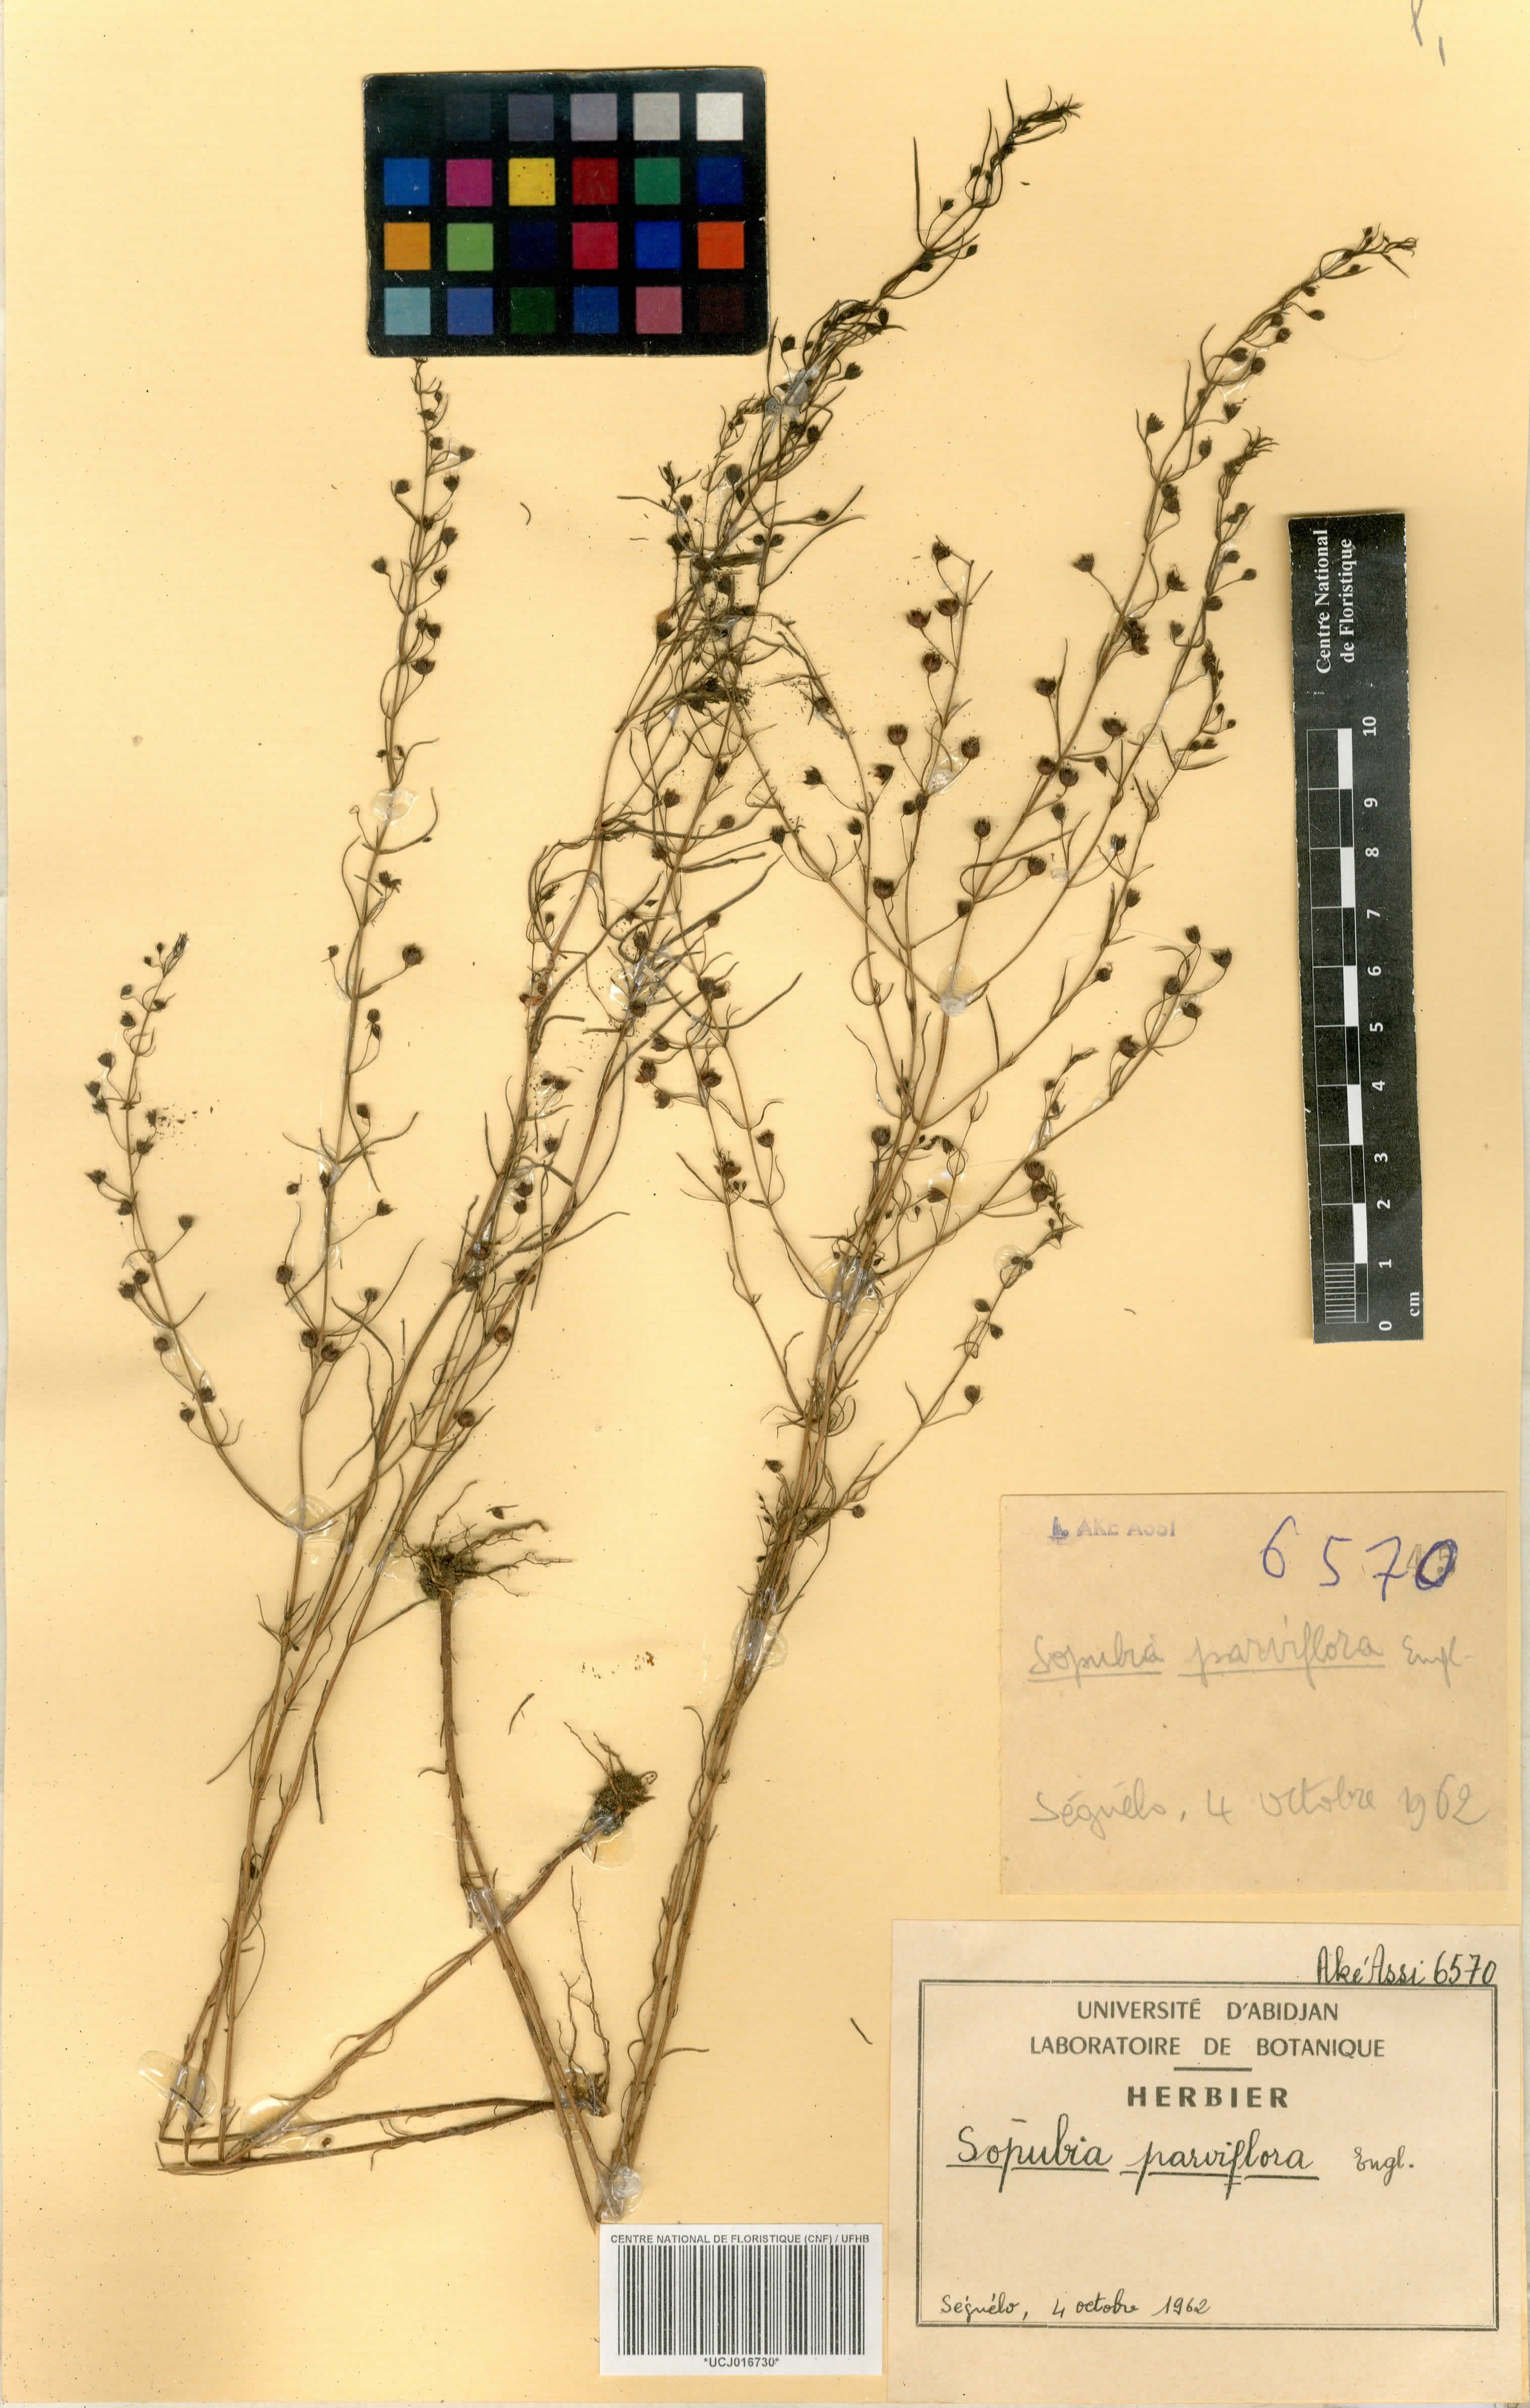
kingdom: Plantae
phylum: Tracheophyta
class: Magnoliopsida
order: Lamiales
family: Orobanchaceae
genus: Sopubia
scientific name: Sopubia parviflora
